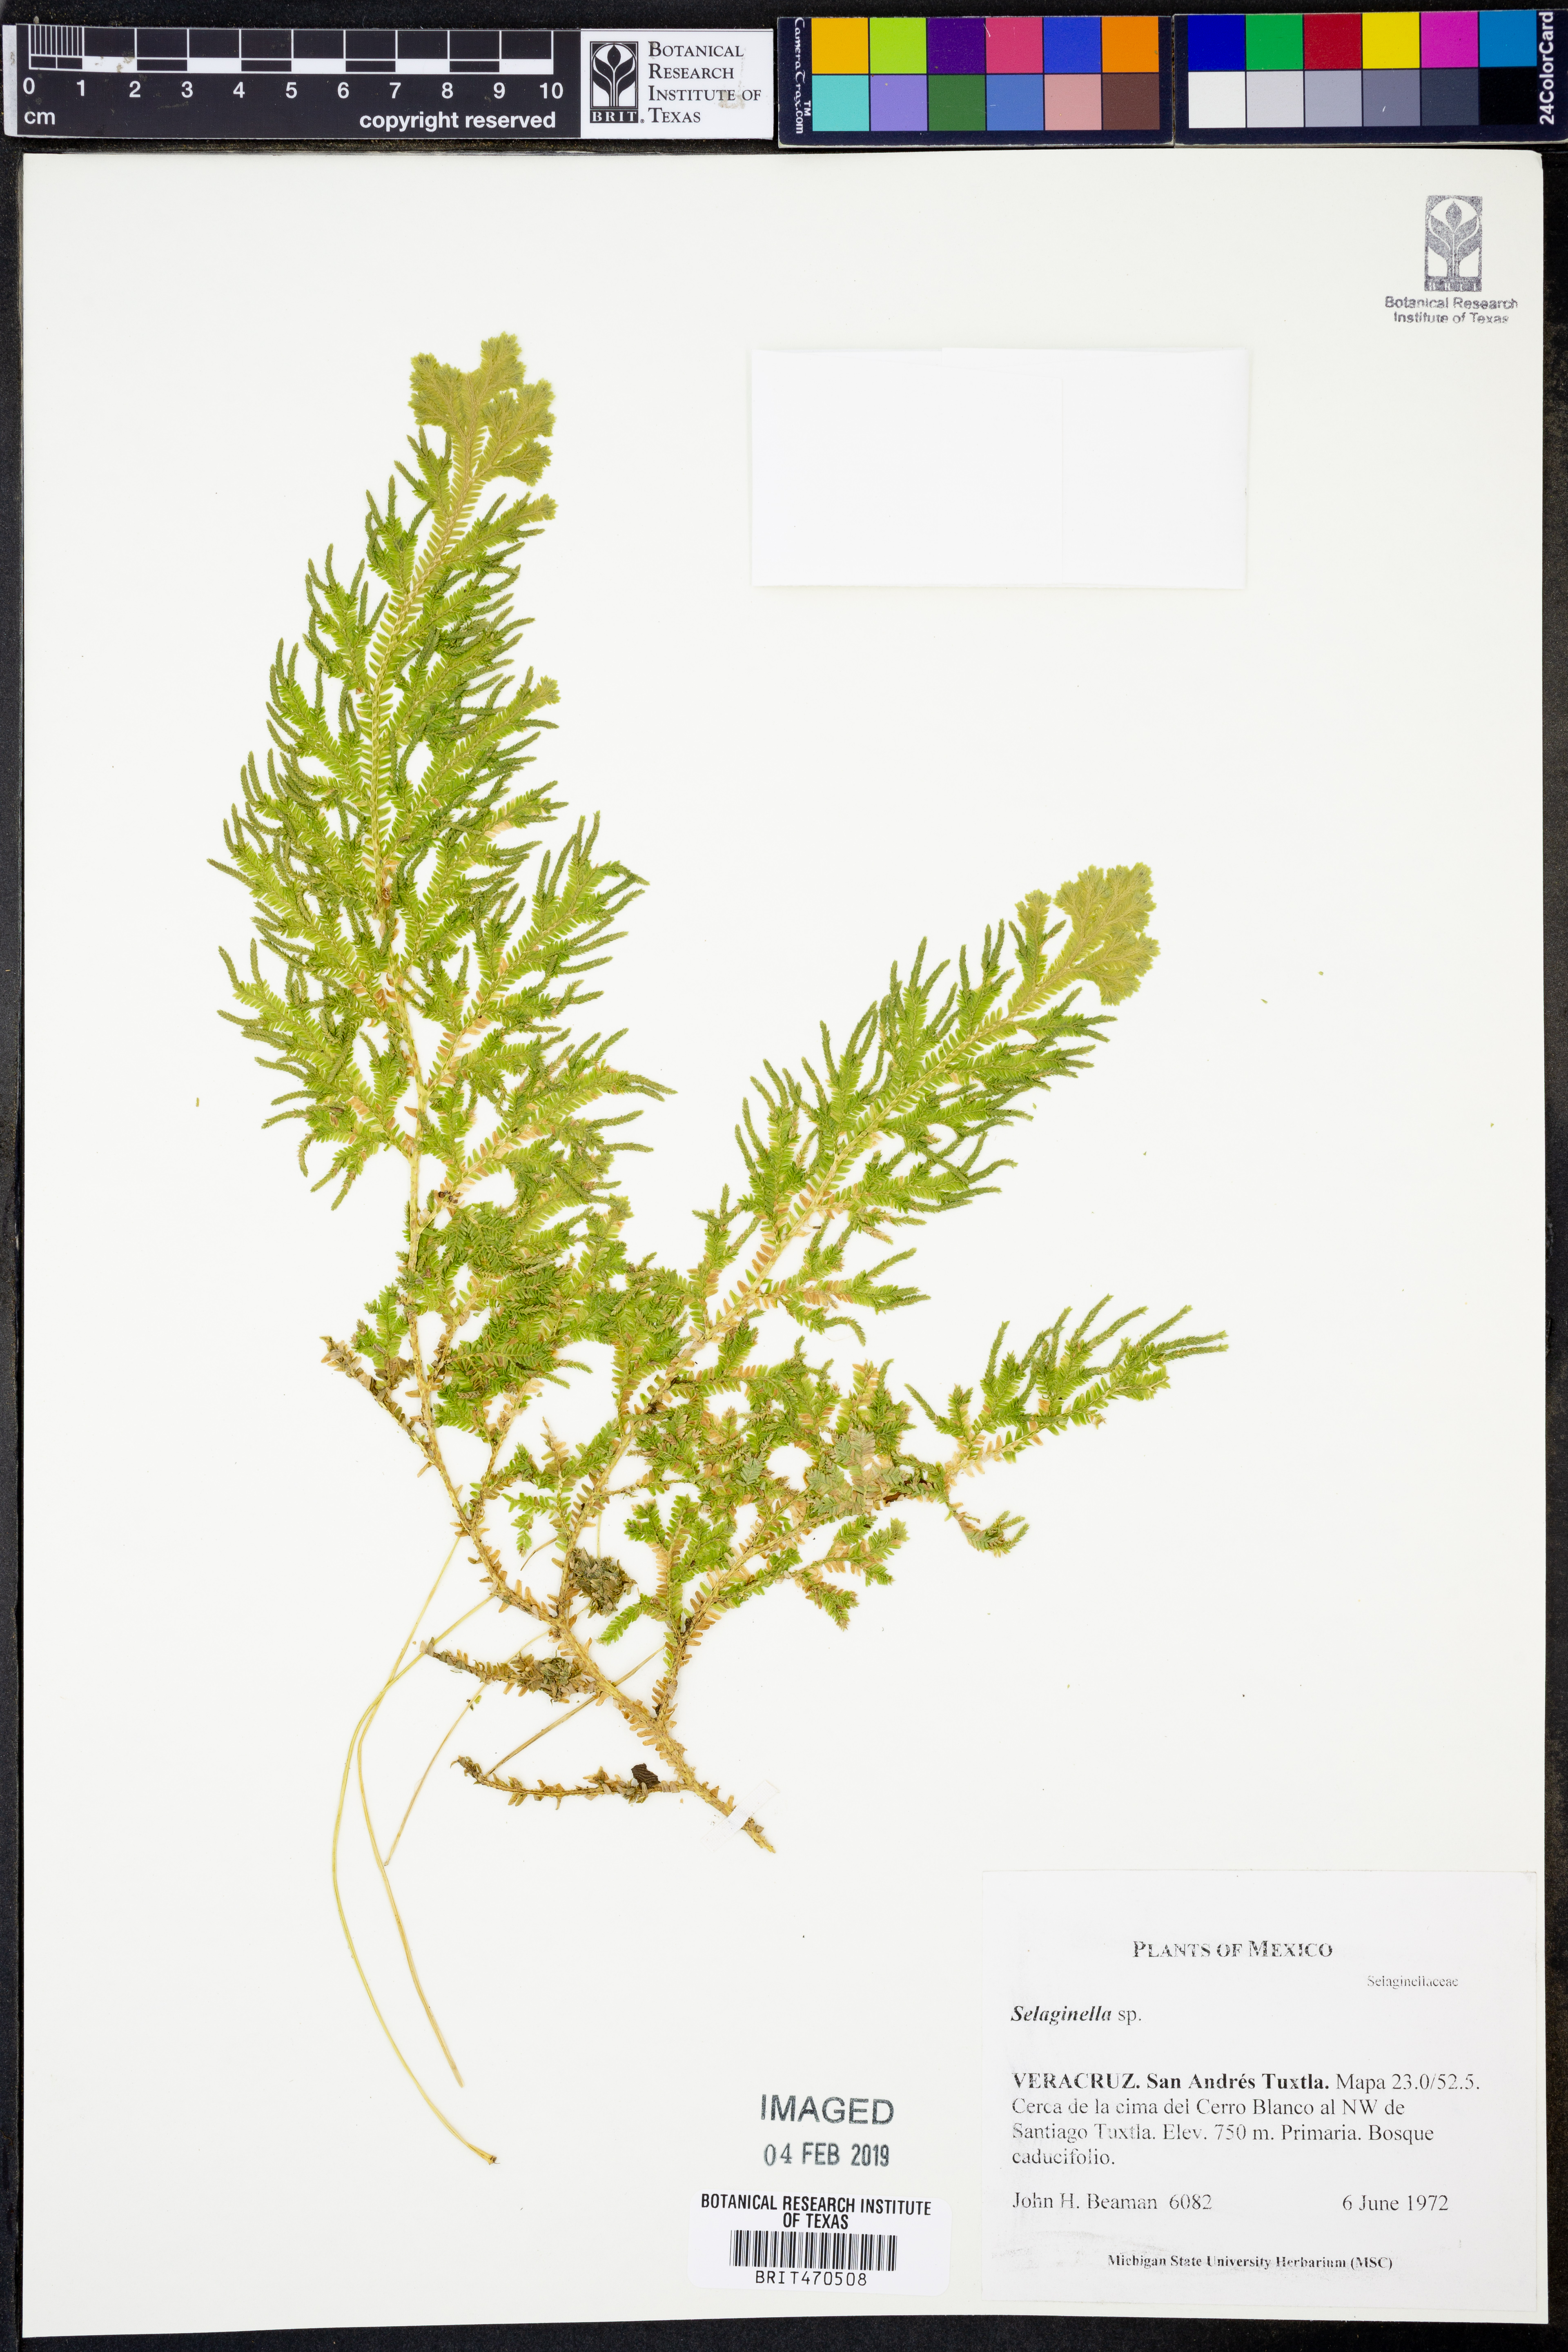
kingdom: Plantae
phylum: Tracheophyta
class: Lycopodiopsida
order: Selaginellales
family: Selaginellaceae
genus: Selaginella
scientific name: Selaginella
